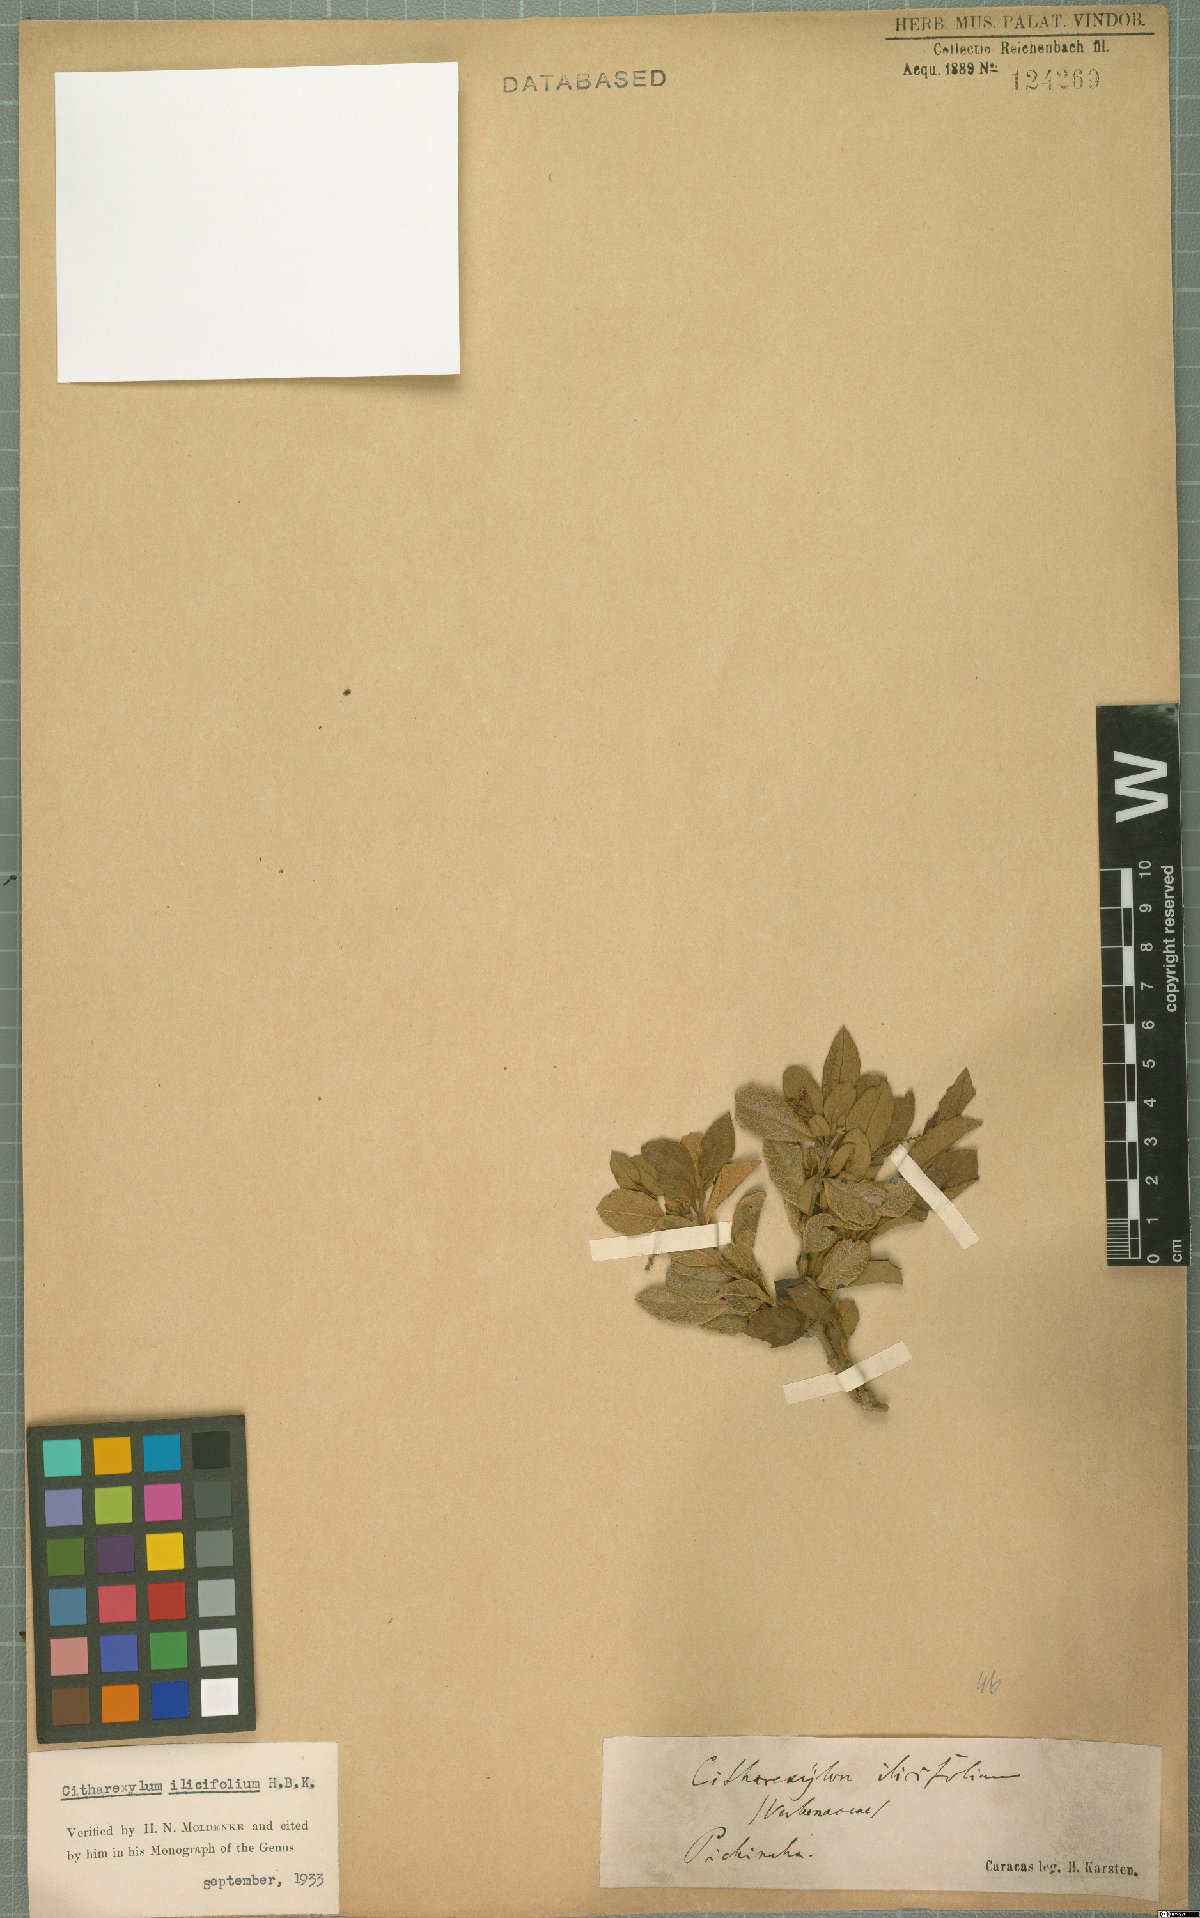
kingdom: Plantae
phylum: Tracheophyta
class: Magnoliopsida
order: Lamiales
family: Verbenaceae
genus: Citharexylum
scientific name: Citharexylum ilicifolium
